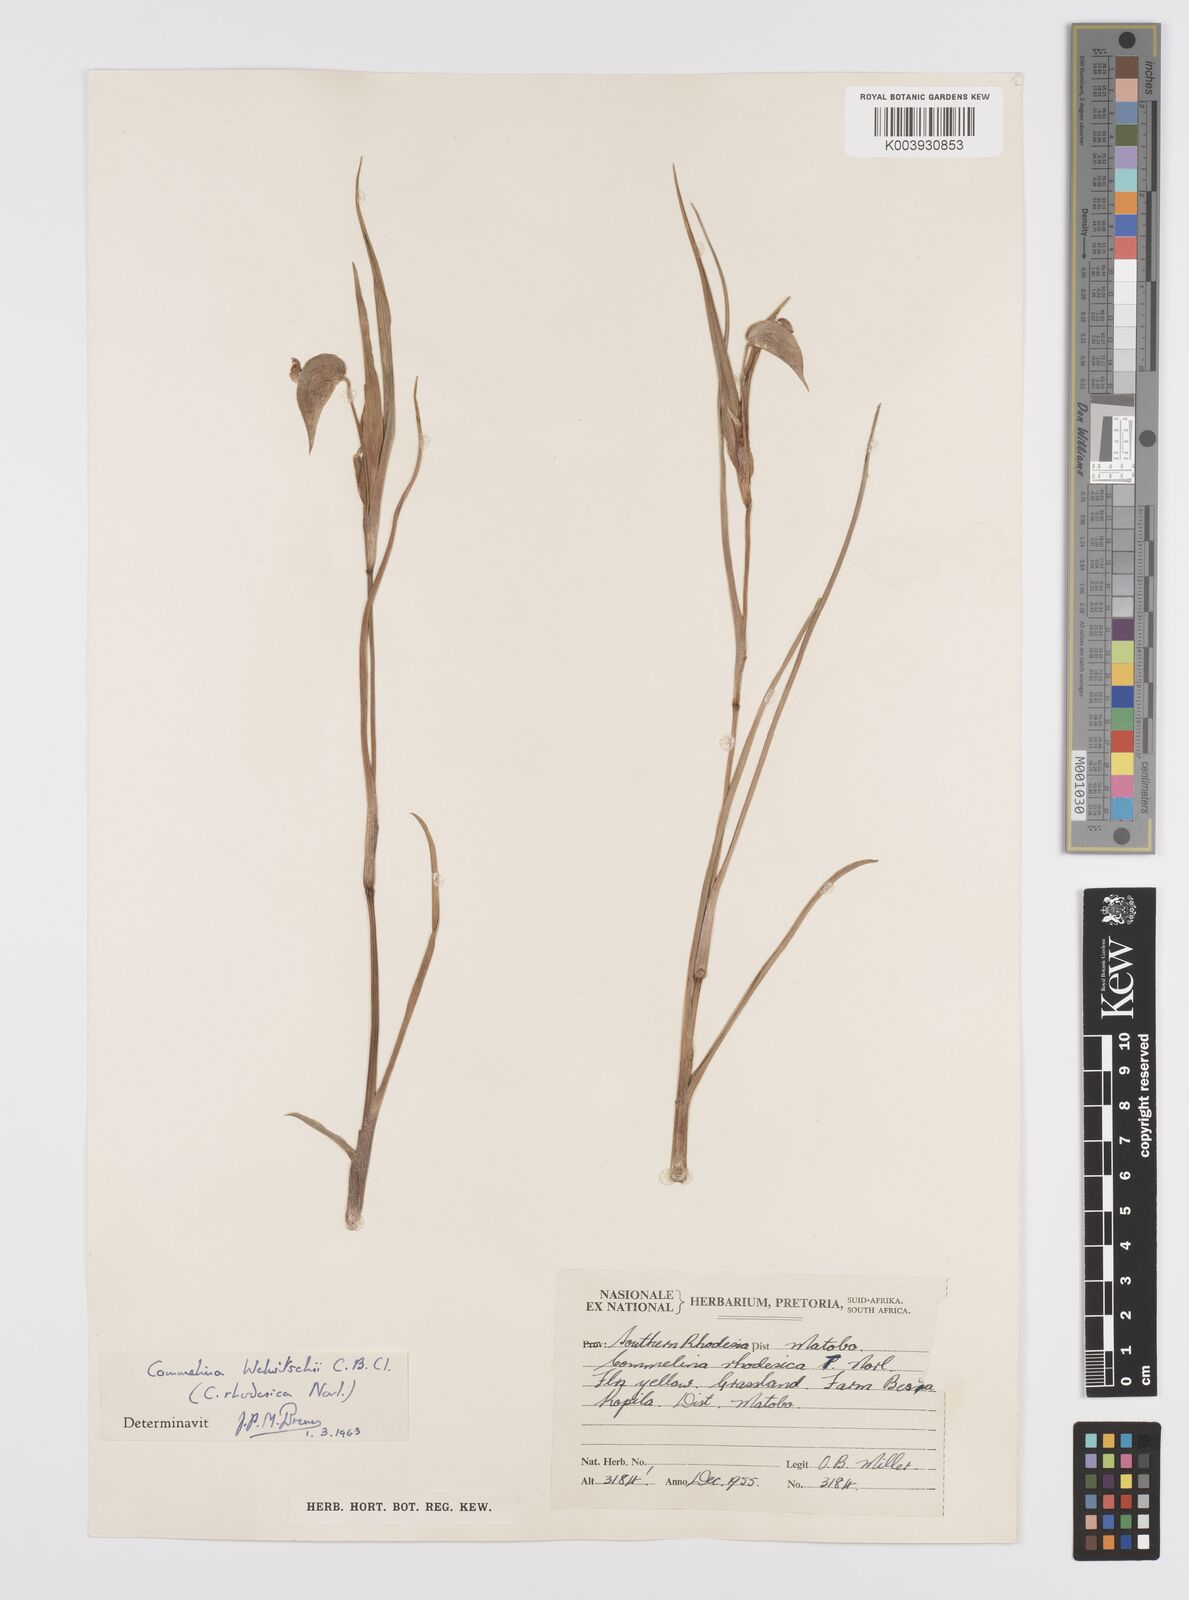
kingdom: Plantae
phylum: Tracheophyta
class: Liliopsida
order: Commelinales
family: Commelinaceae
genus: Commelina
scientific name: Commelina welwitschii
